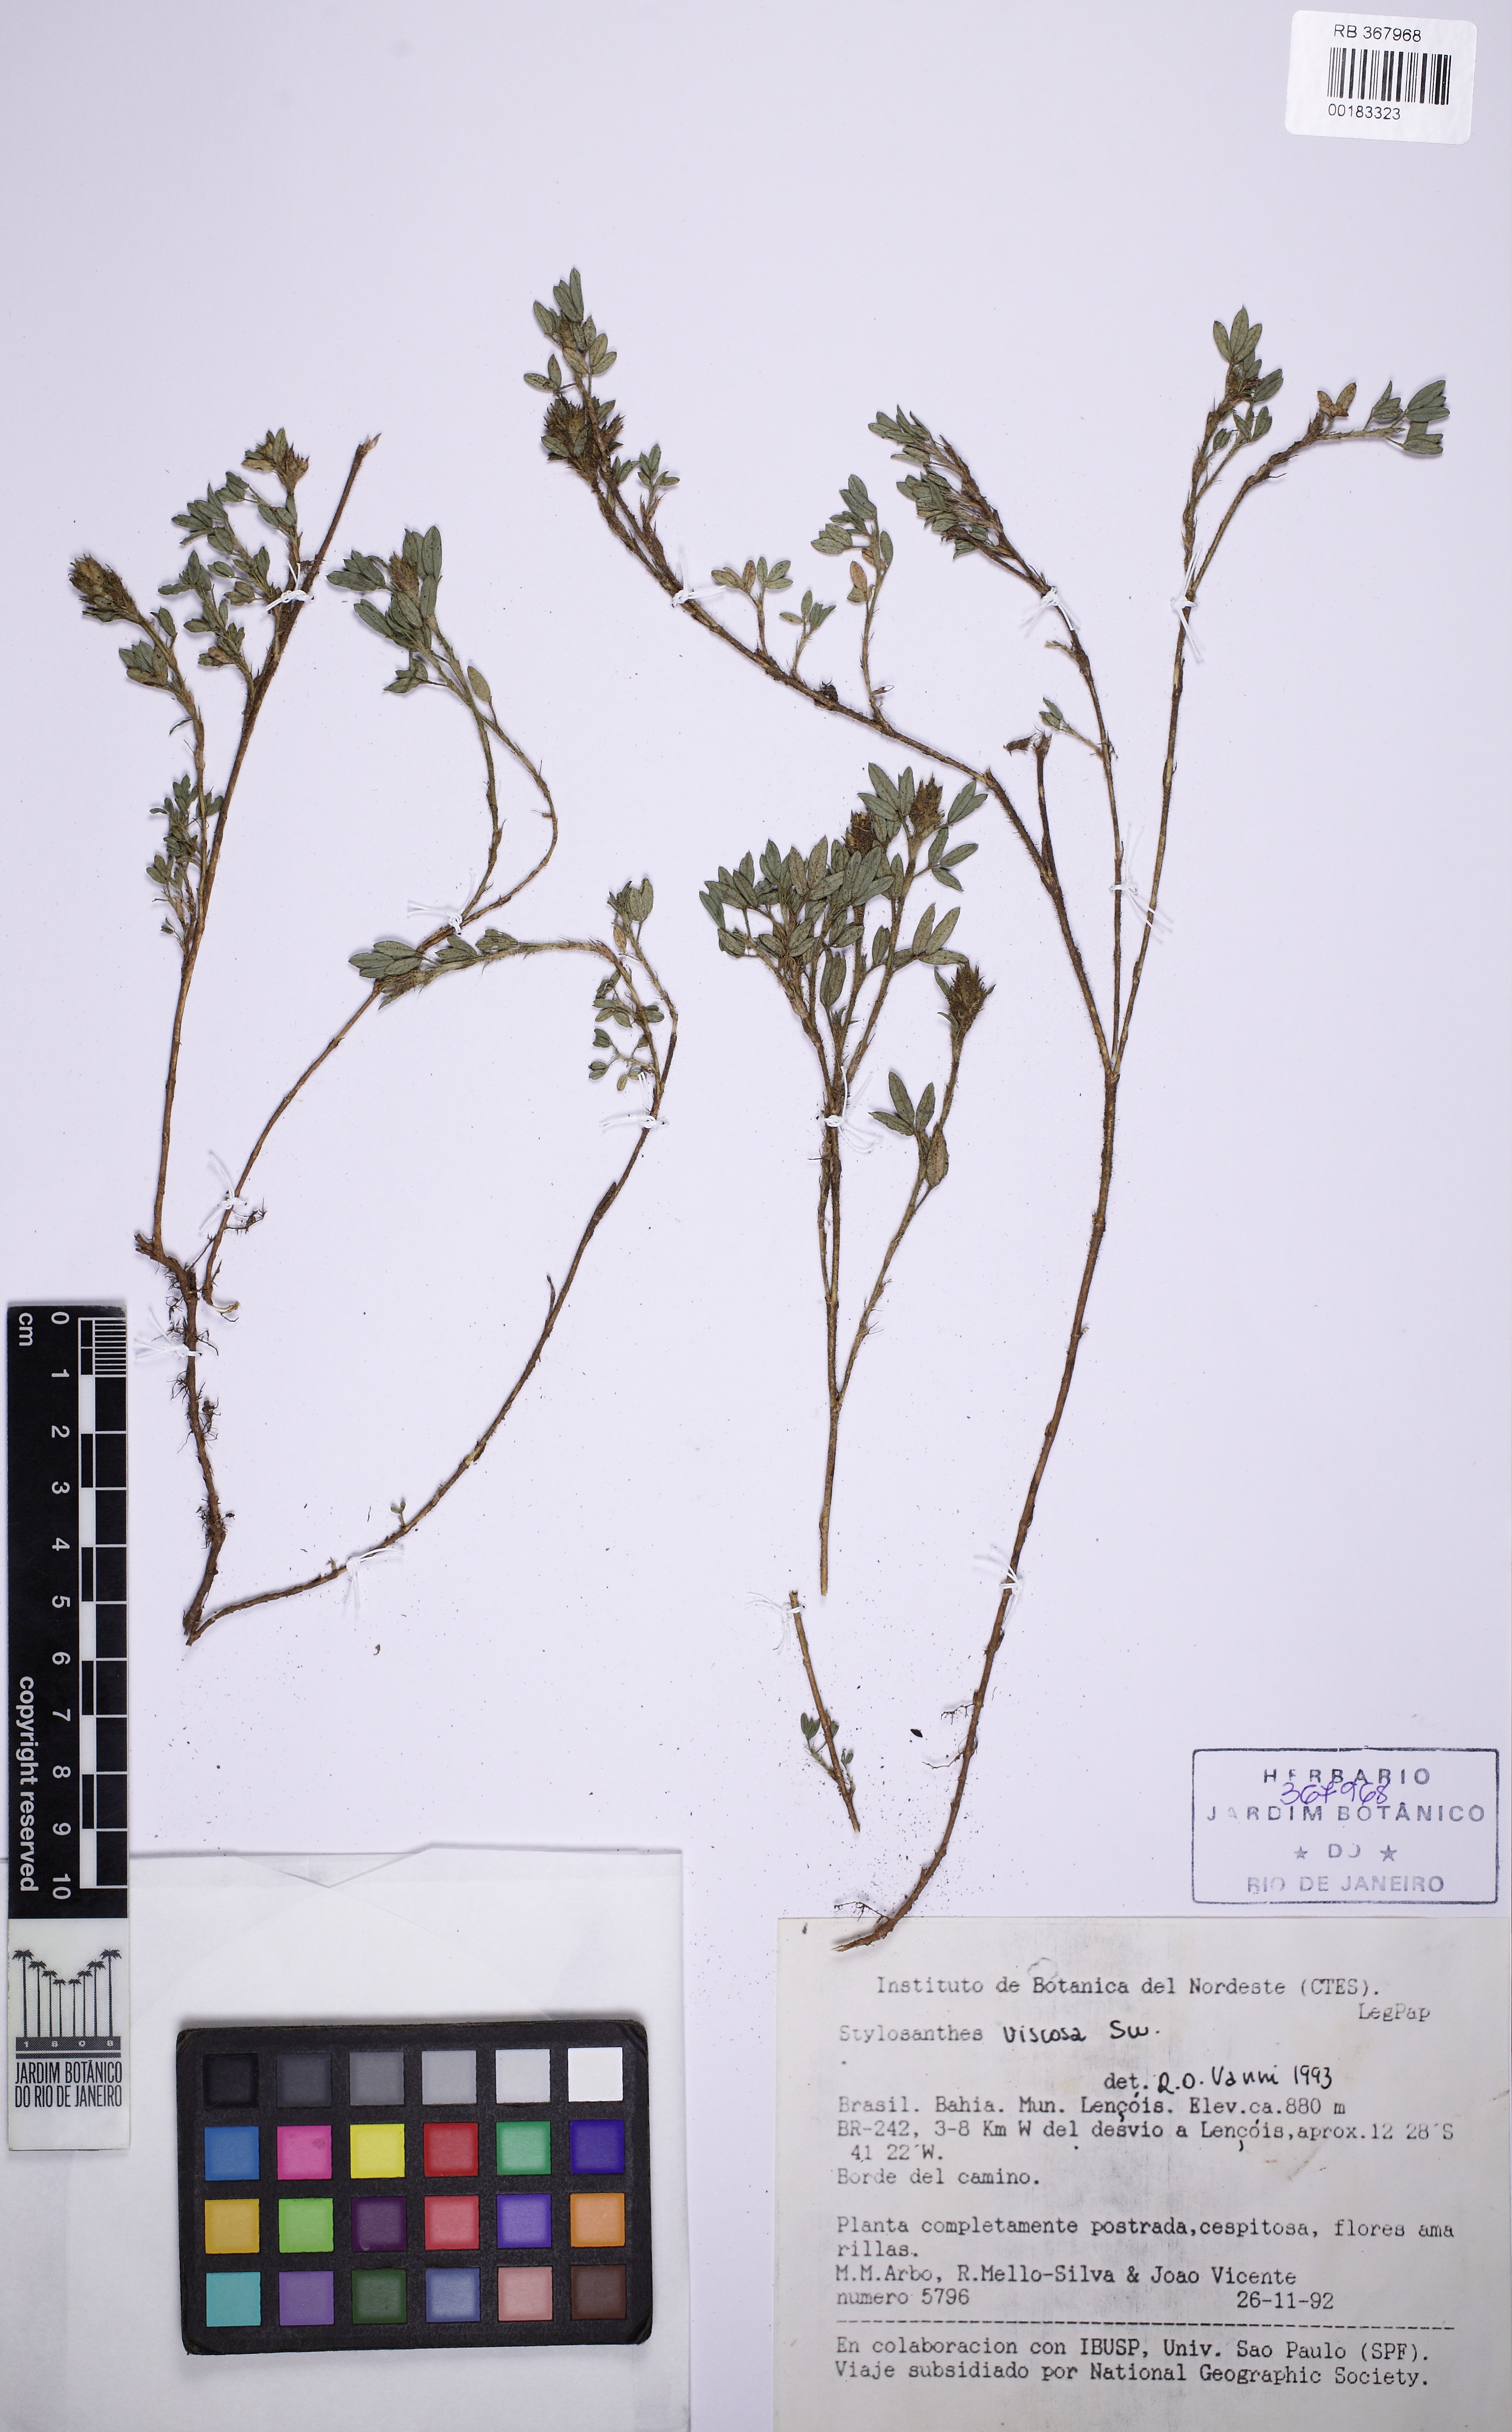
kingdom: Plantae
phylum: Tracheophyta
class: Magnoliopsida
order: Fabales
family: Fabaceae
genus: Stylosanthes
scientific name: Stylosanthes viscosa
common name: Viscid pencil-flower
